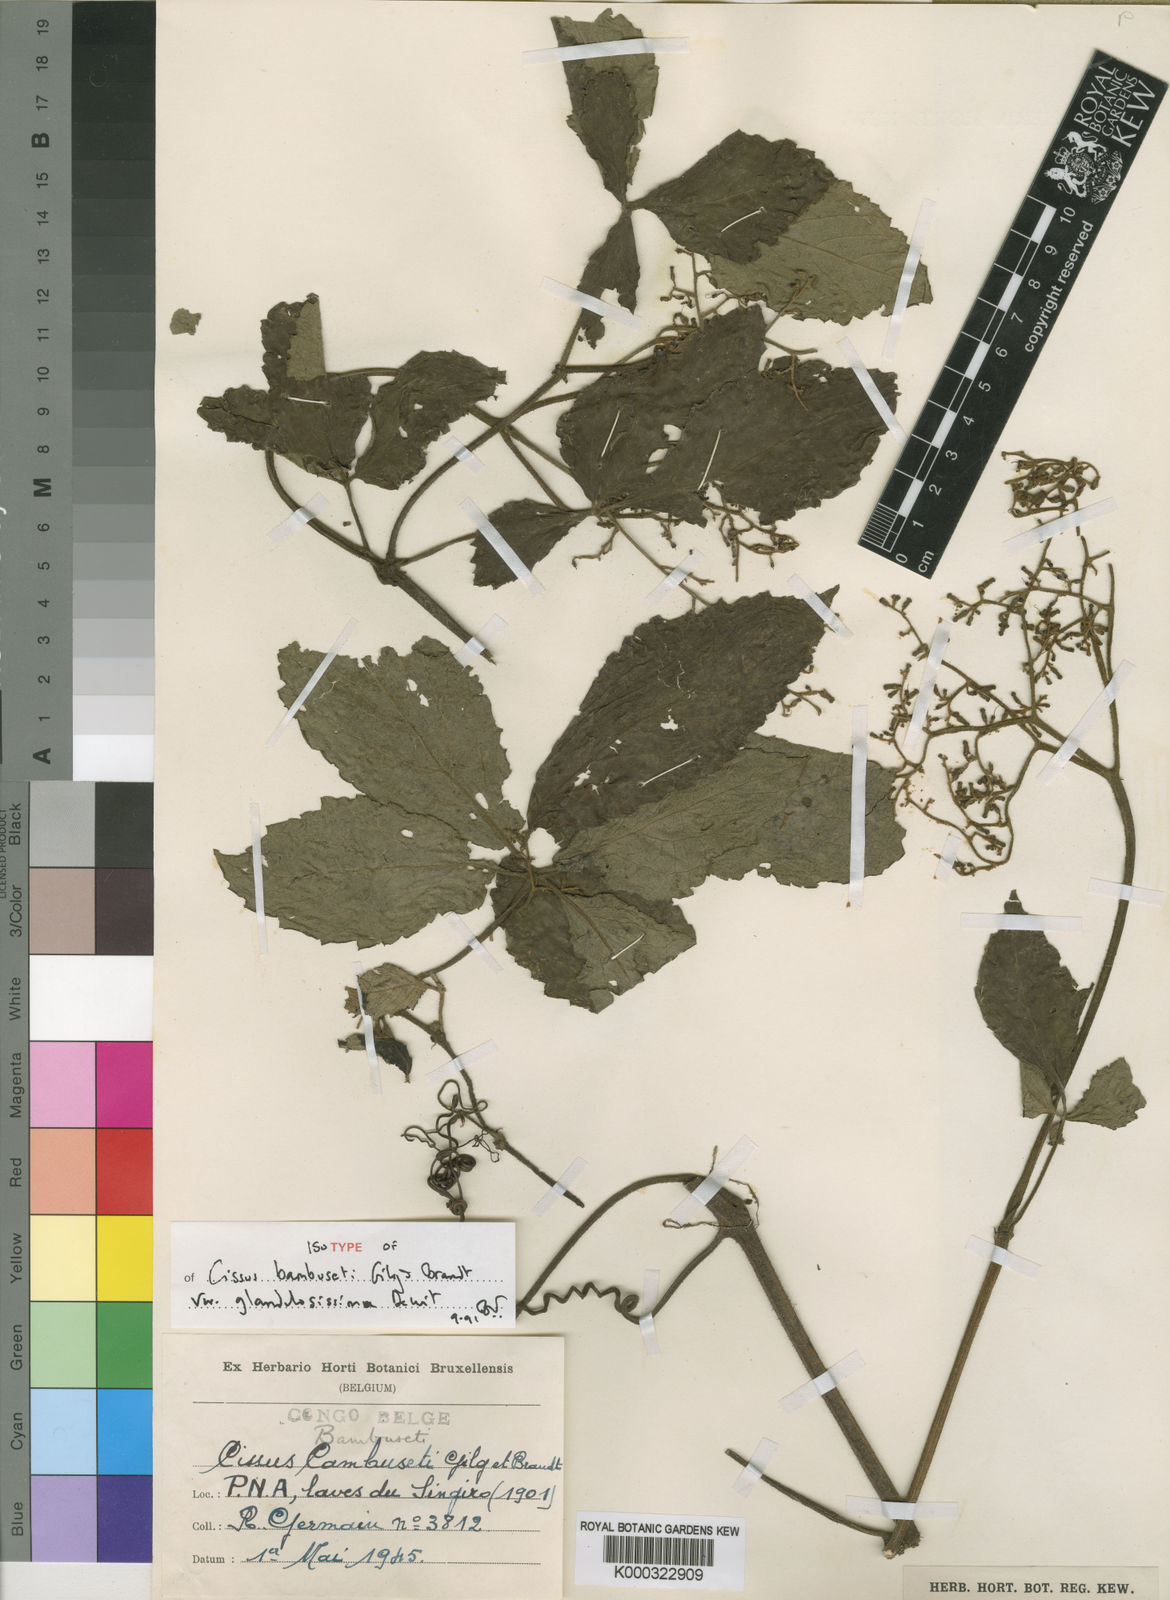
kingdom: Plantae
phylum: Tracheophyta
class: Magnoliopsida
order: Vitales
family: Vitaceae
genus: Cyphostemma
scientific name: Cyphostemma
